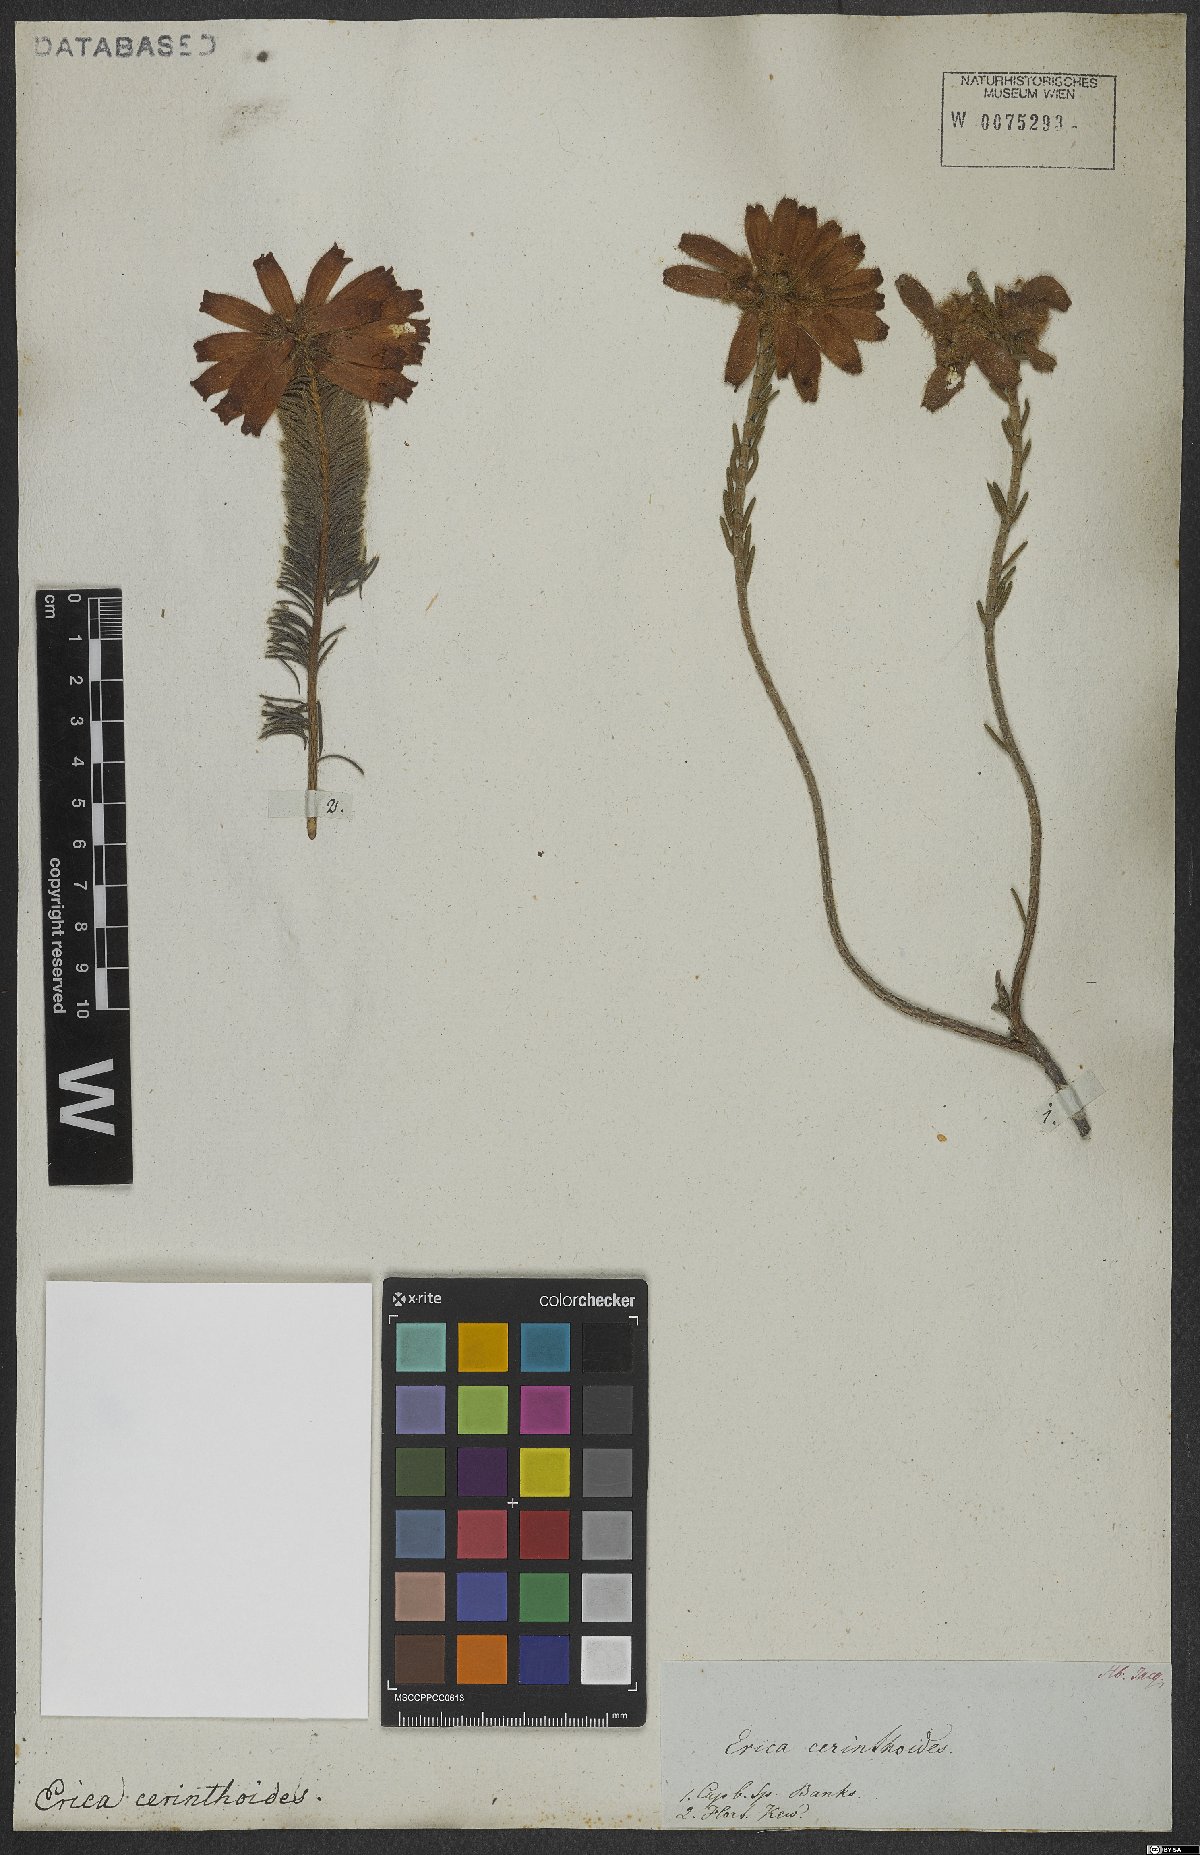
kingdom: Plantae
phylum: Tracheophyta
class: Magnoliopsida
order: Ericales
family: Ericaceae
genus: Erica
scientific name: Erica cerinthoides
